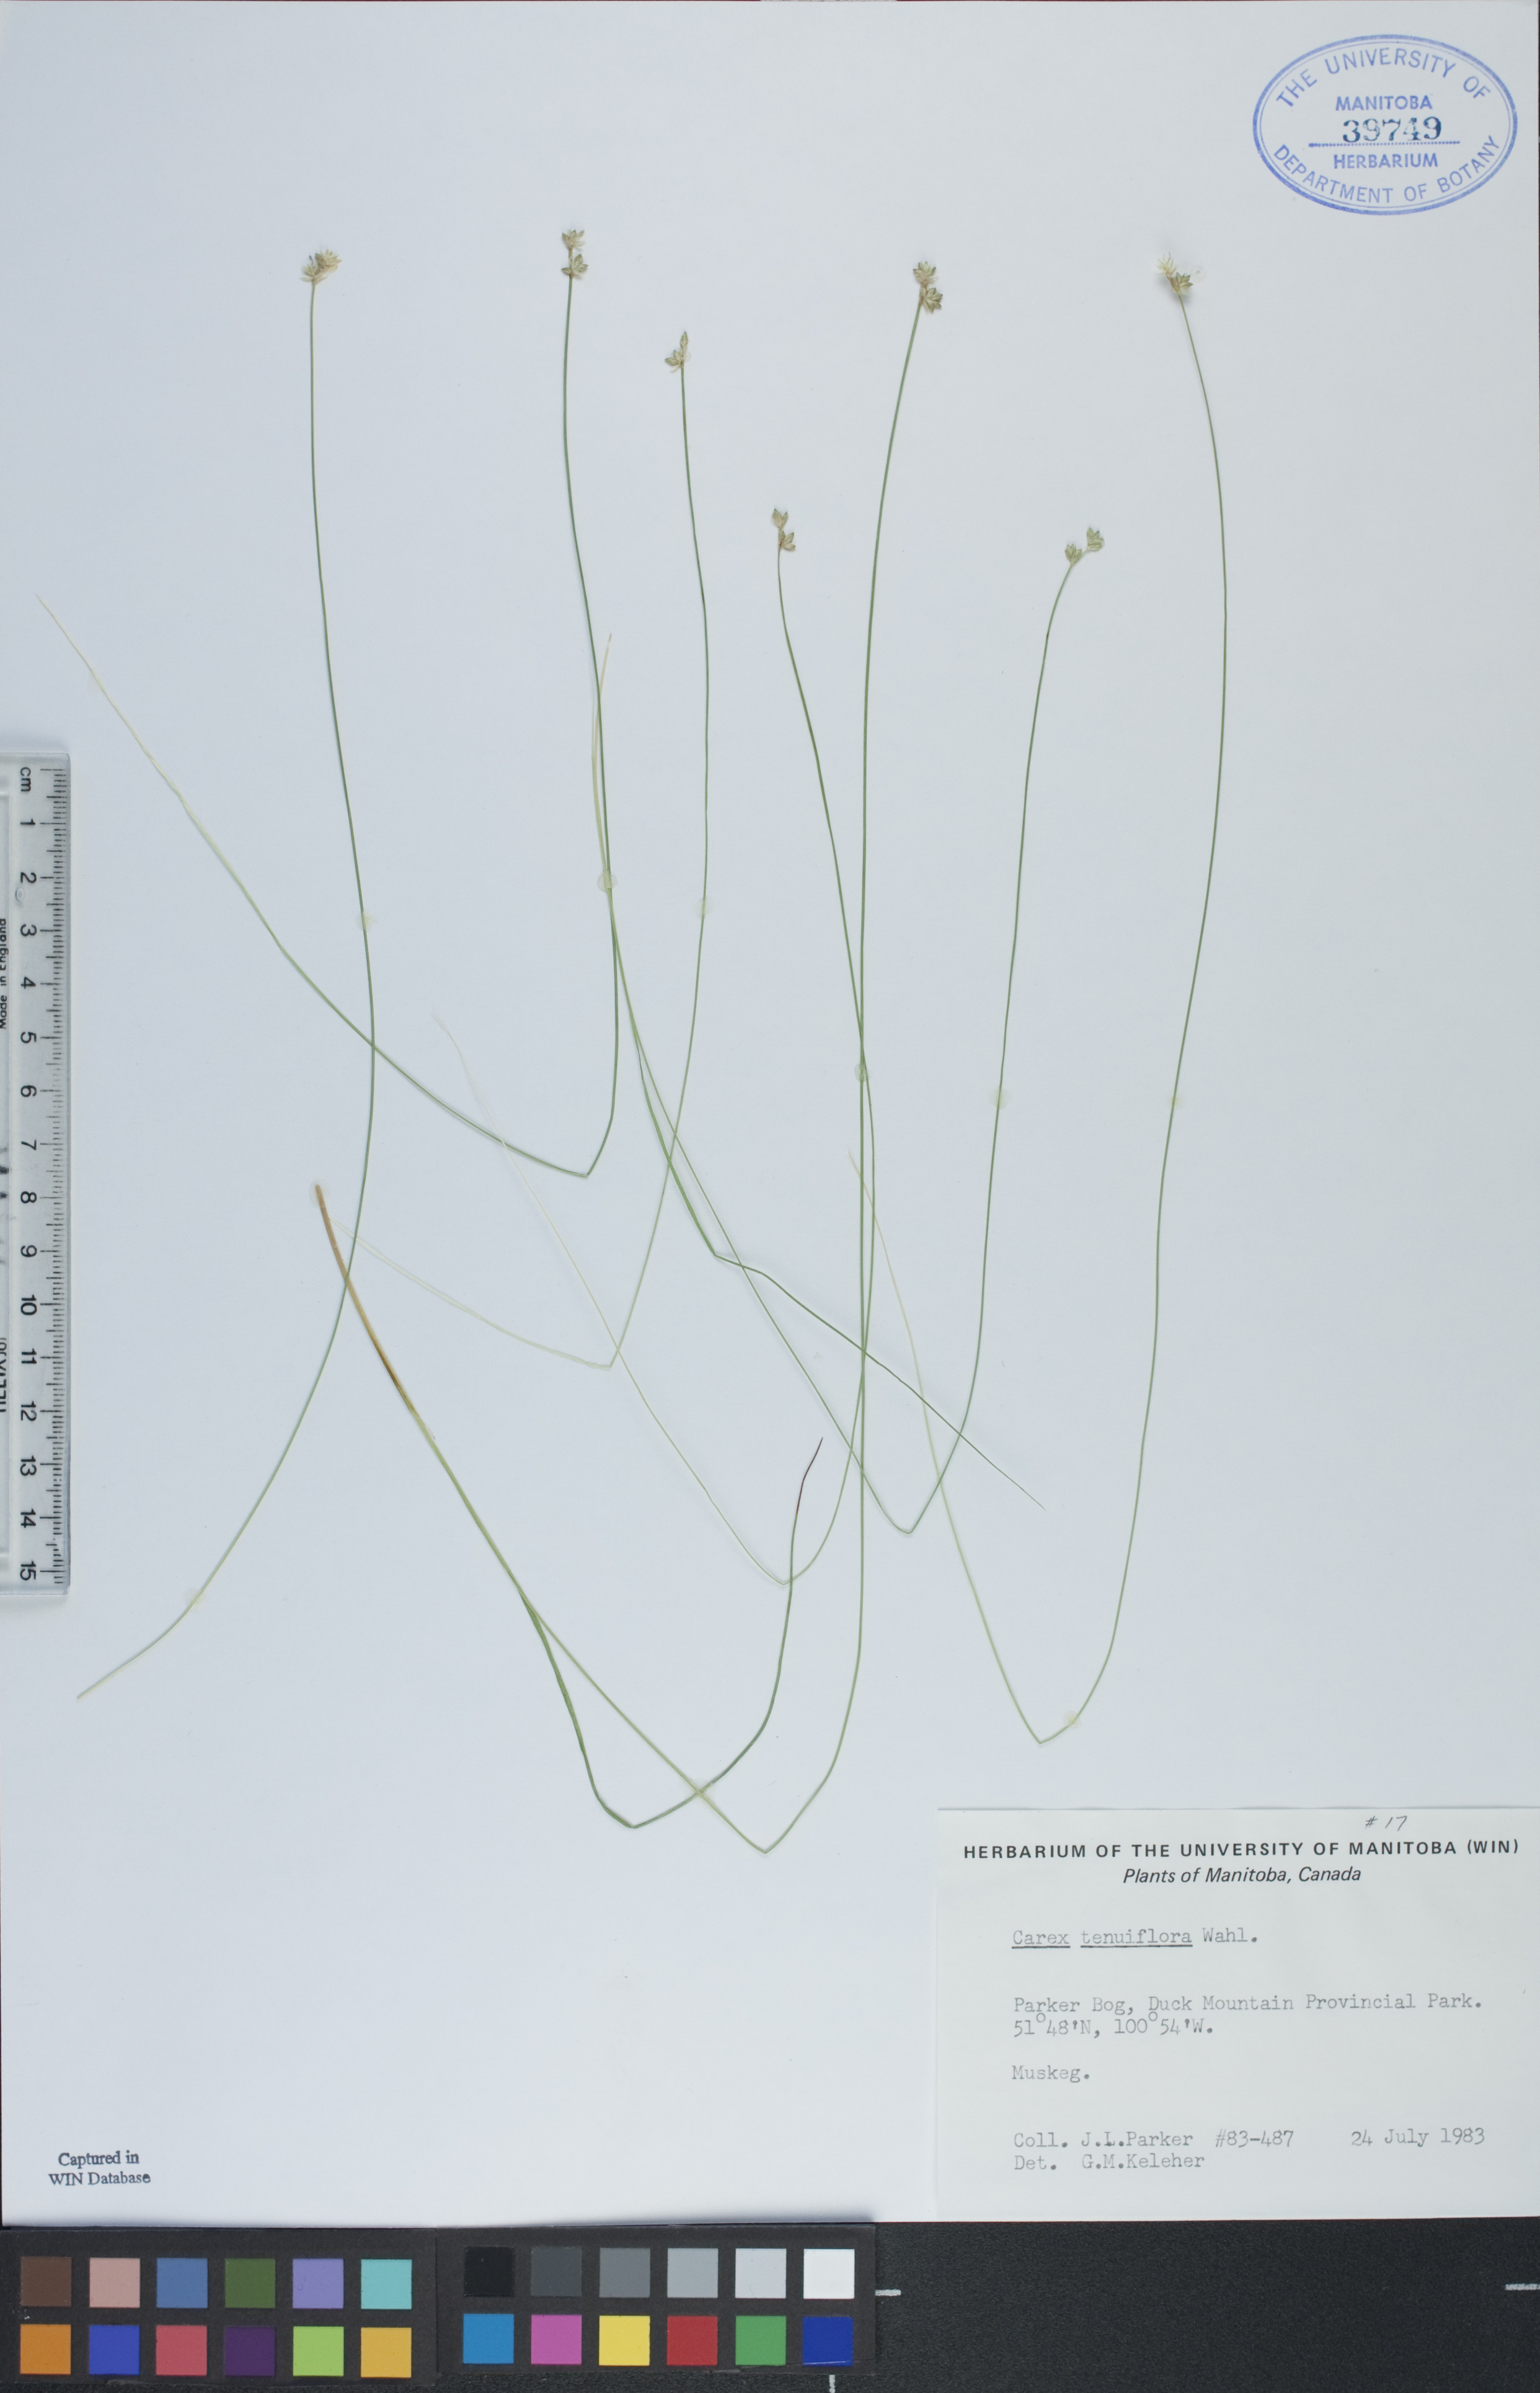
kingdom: Plantae
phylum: Tracheophyta
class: Liliopsida
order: Poales
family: Cyperaceae
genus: Carex
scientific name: Carex tenera
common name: Broad-fruited sedge
